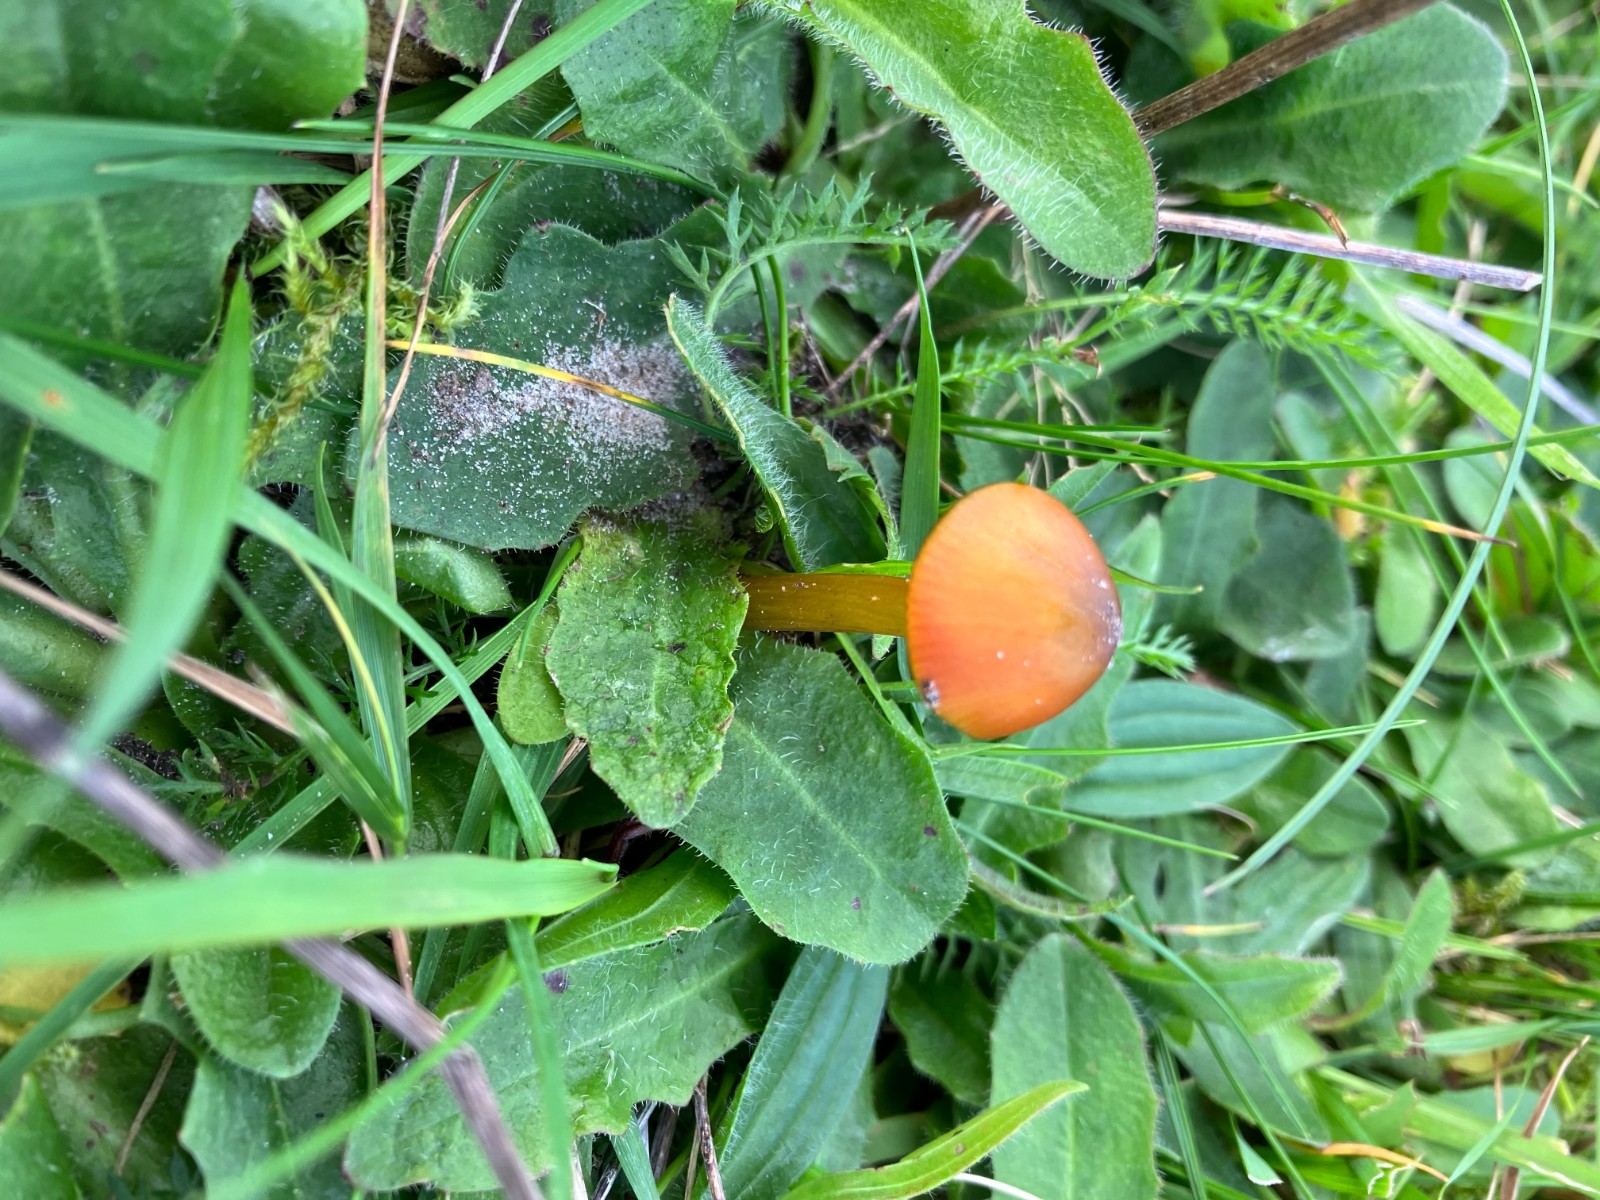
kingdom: Fungi
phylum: Basidiomycota
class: Agaricomycetes
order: Agaricales
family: Hygrophoraceae
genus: Hygrocybe
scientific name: Hygrocybe conica
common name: kegle-vokshat
